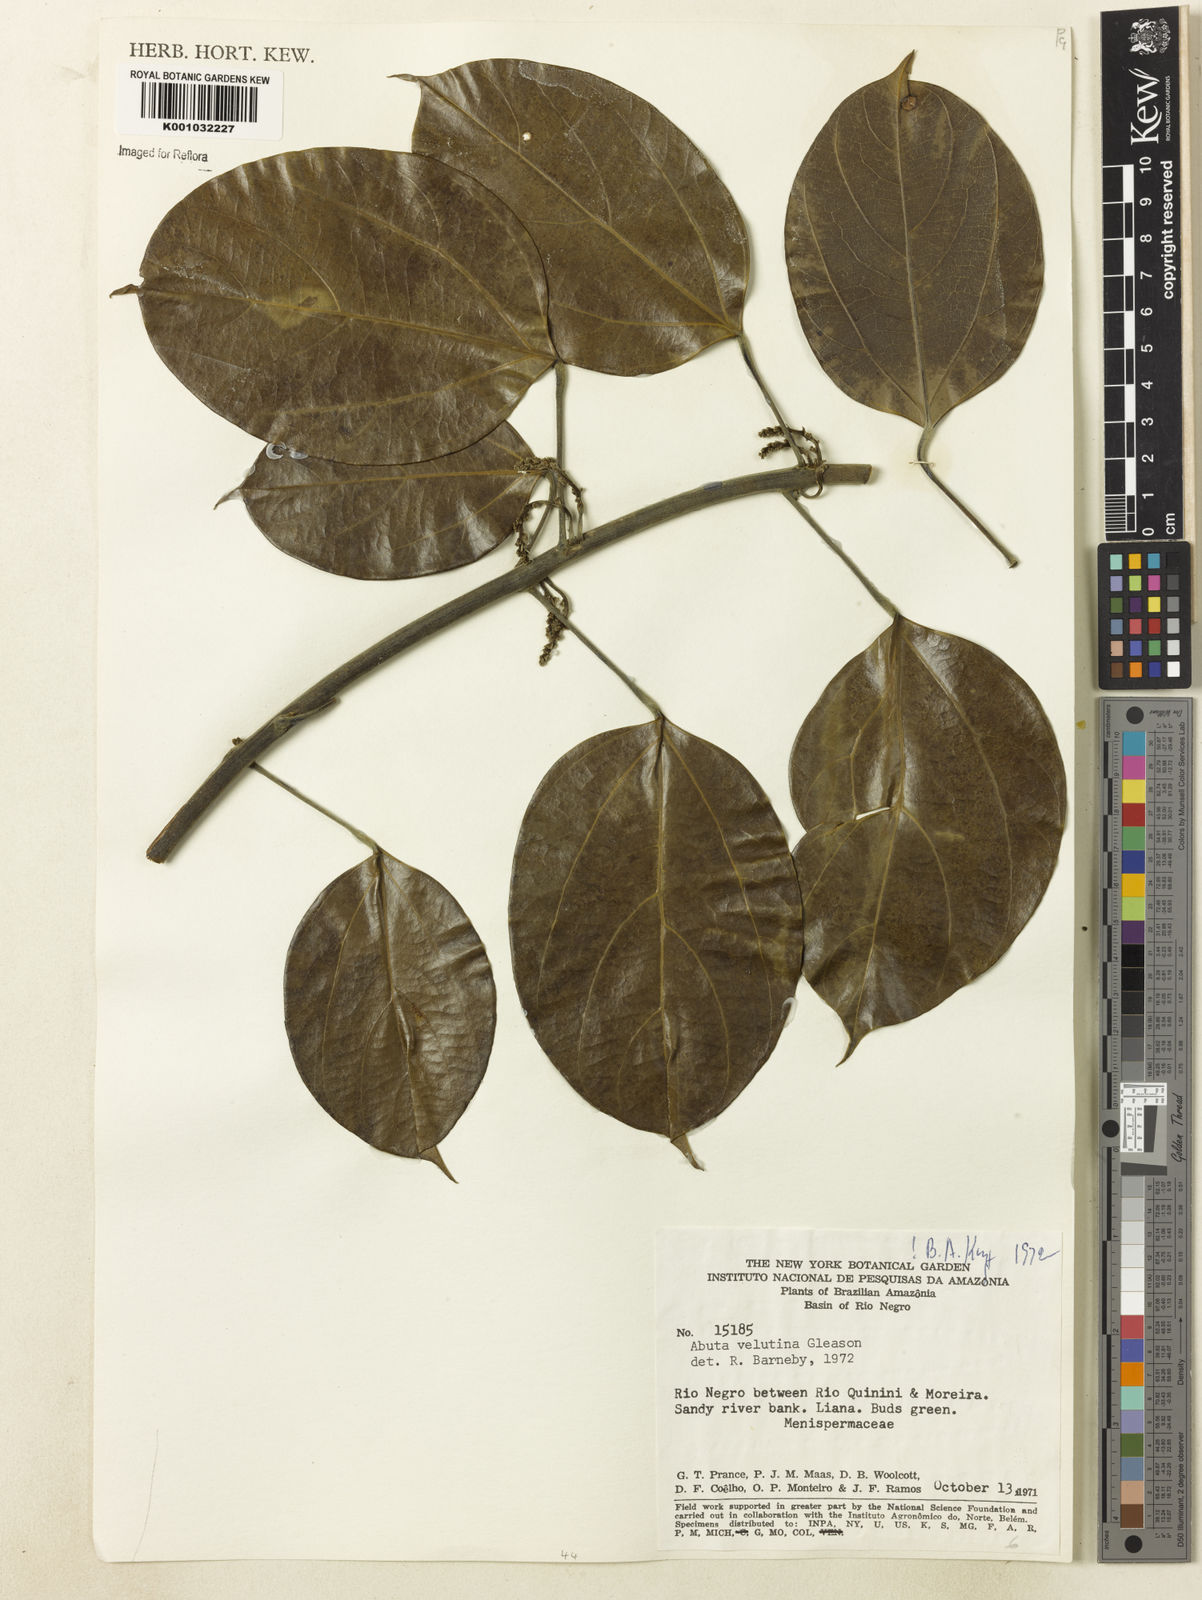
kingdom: Plantae
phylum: Tracheophyta
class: Magnoliopsida
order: Ranunculales
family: Menispermaceae
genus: Abuta
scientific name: Abuta velutina
